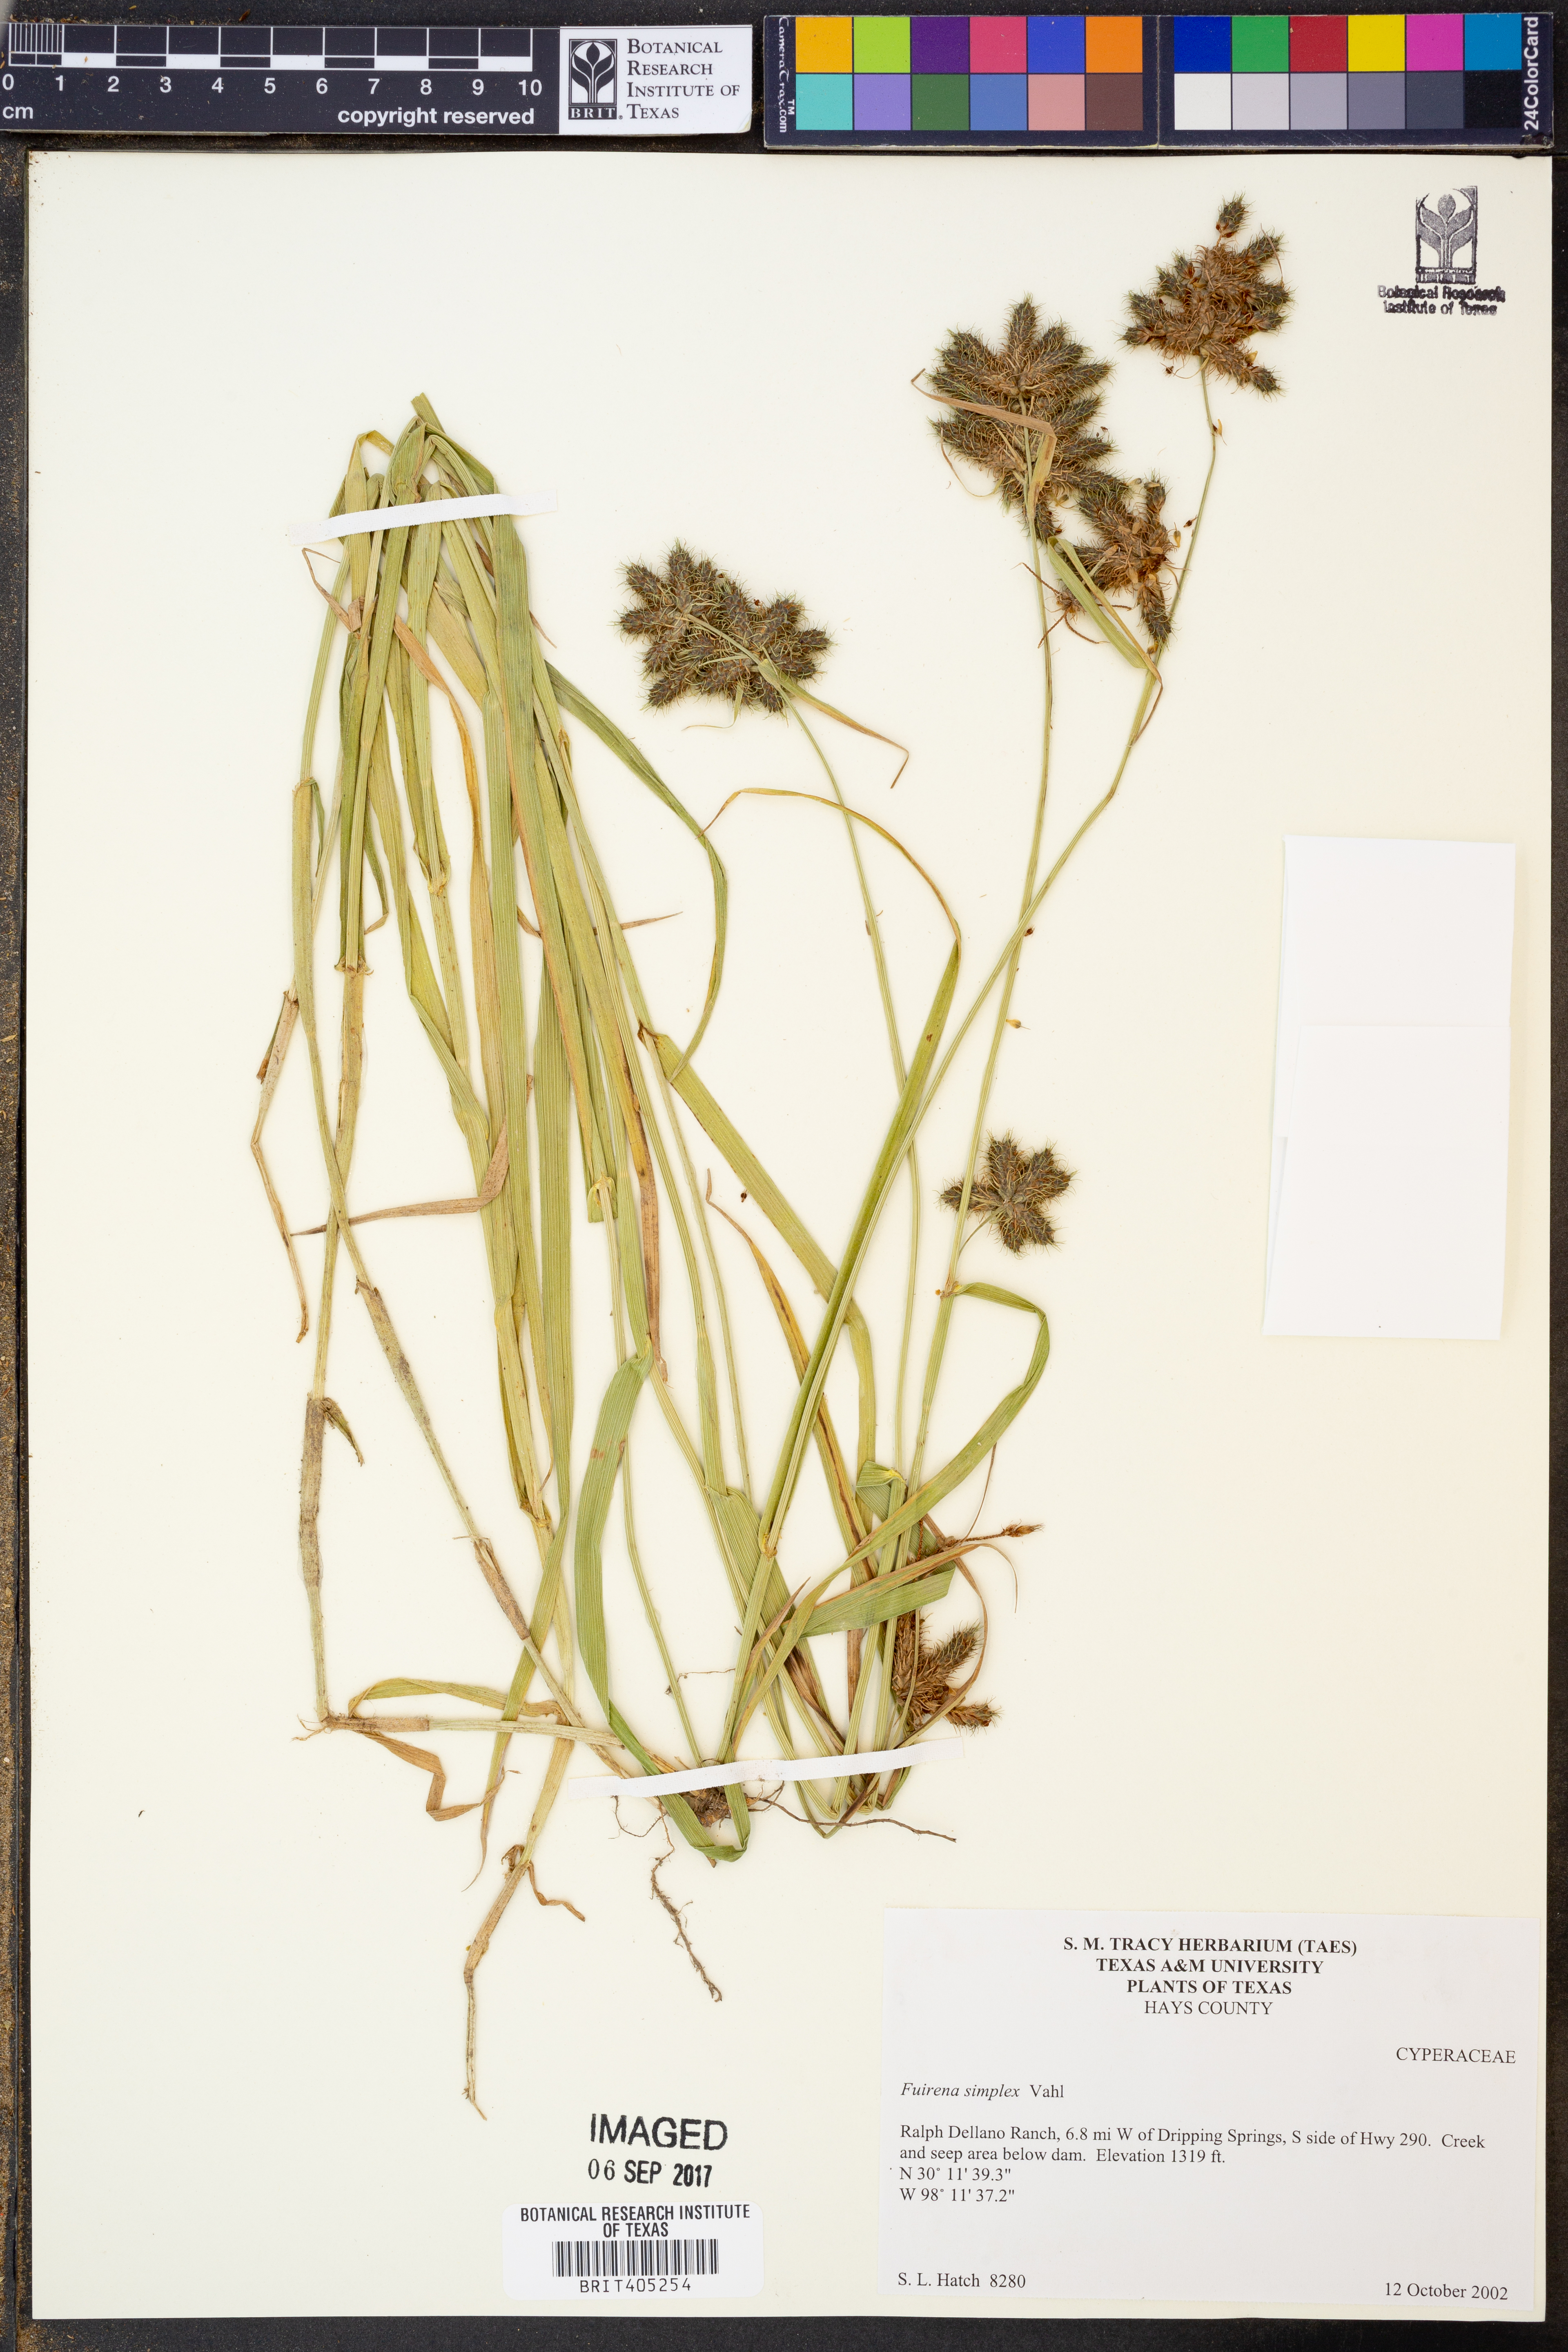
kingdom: Plantae
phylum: Tracheophyta
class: Liliopsida
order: Poales
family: Cyperaceae
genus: Fuirena
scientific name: Fuirena simplex
